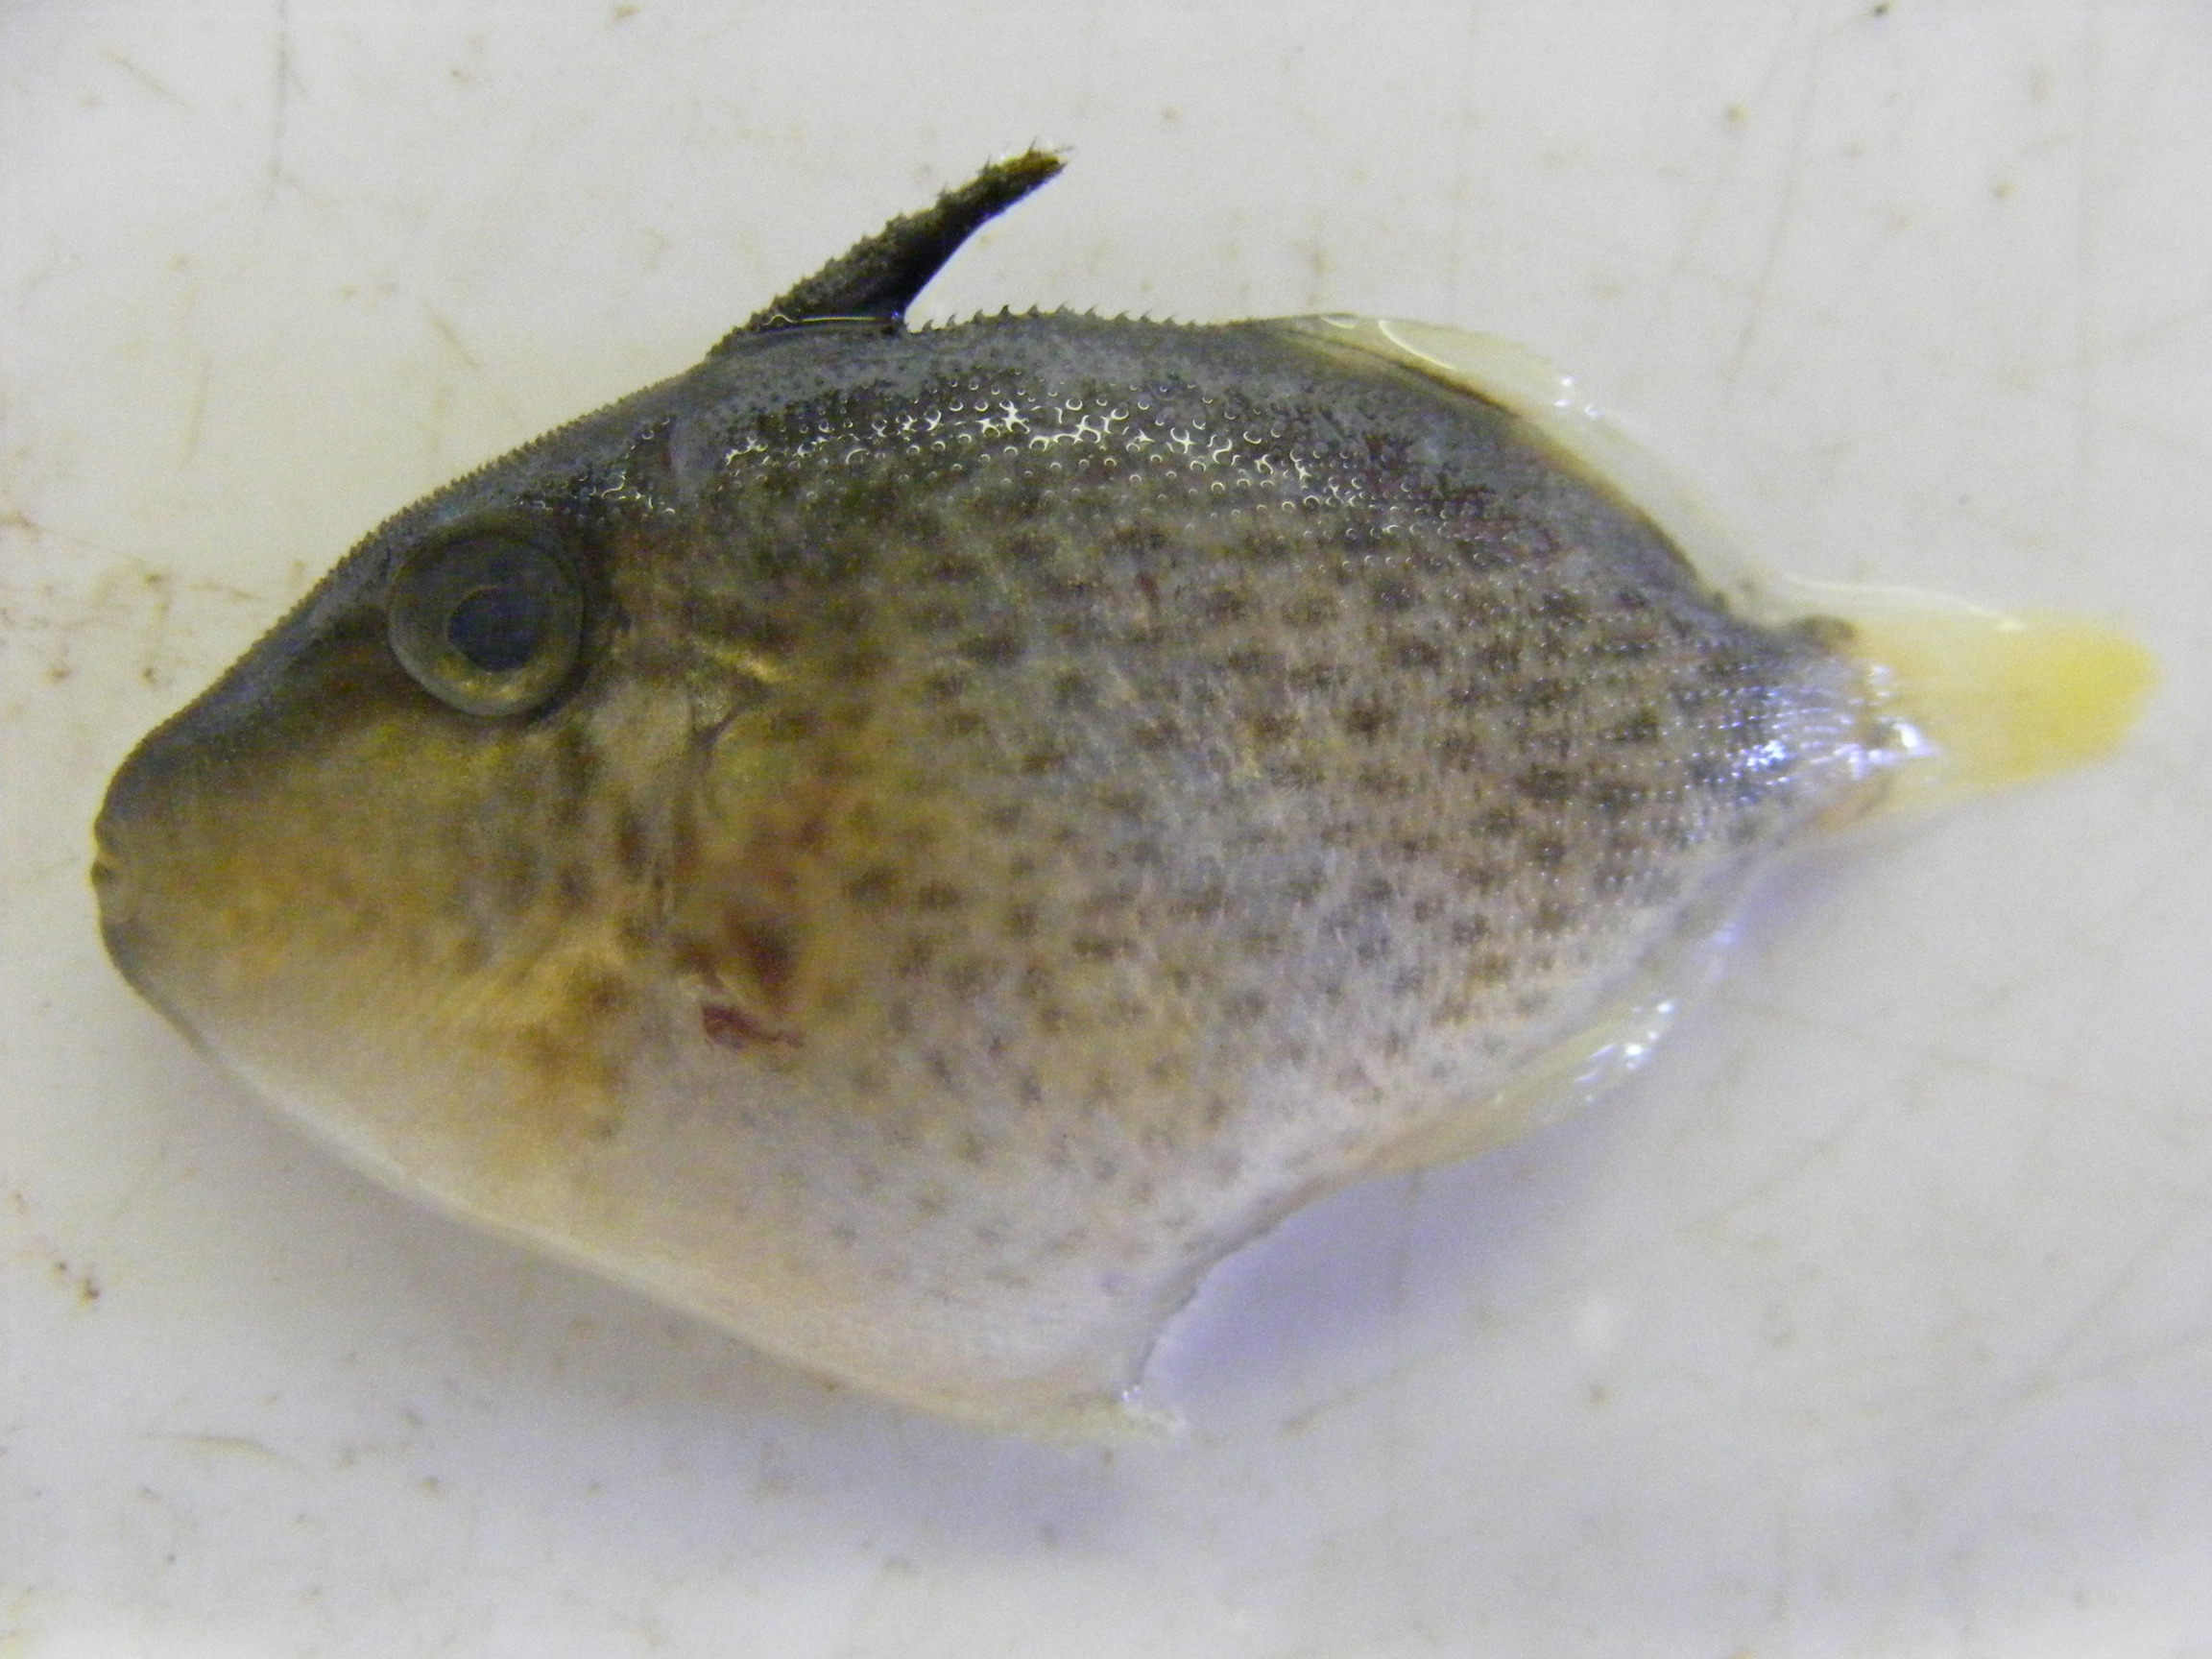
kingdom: Animalia
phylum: Chordata
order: Tetraodontiformes
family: Balistidae
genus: Sufflamen
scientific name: Sufflamen
